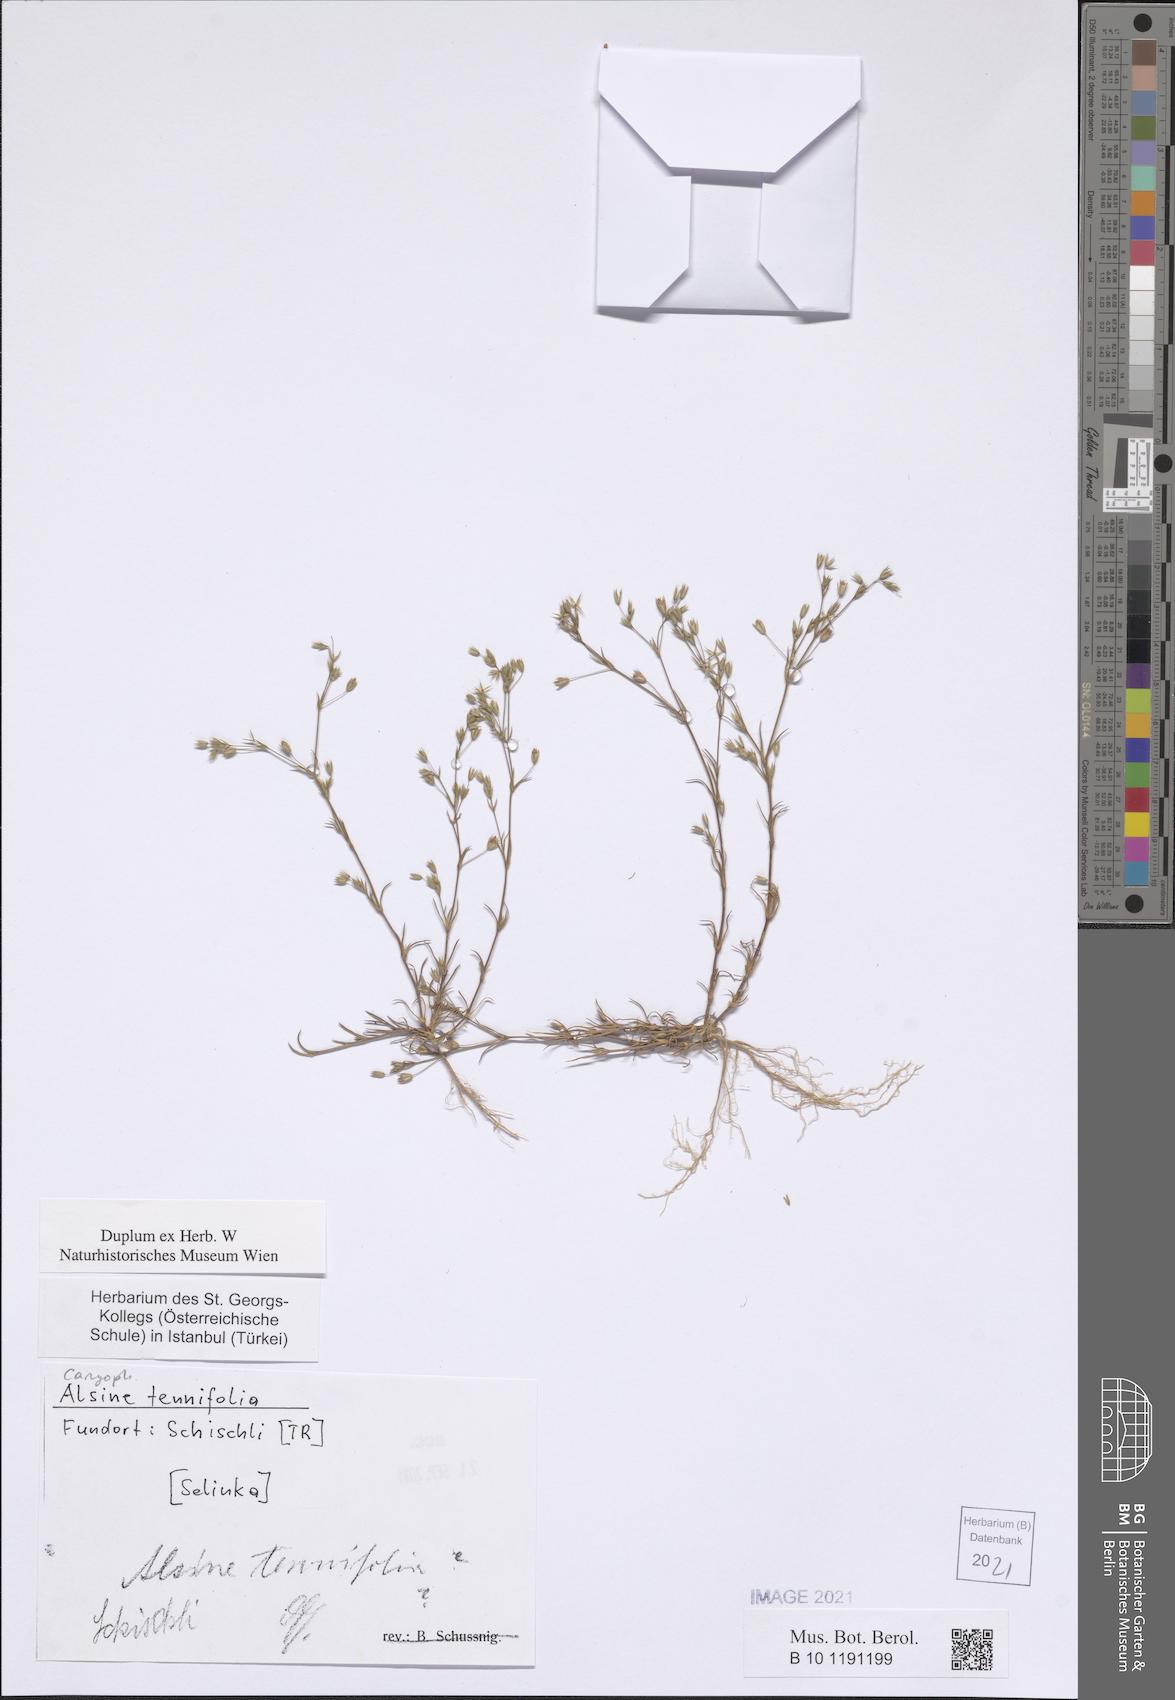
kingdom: Plantae
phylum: Tracheophyta
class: Magnoliopsida
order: Caryophyllales
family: Caryophyllaceae
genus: Sabulina
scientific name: Sabulina tenuifolia
